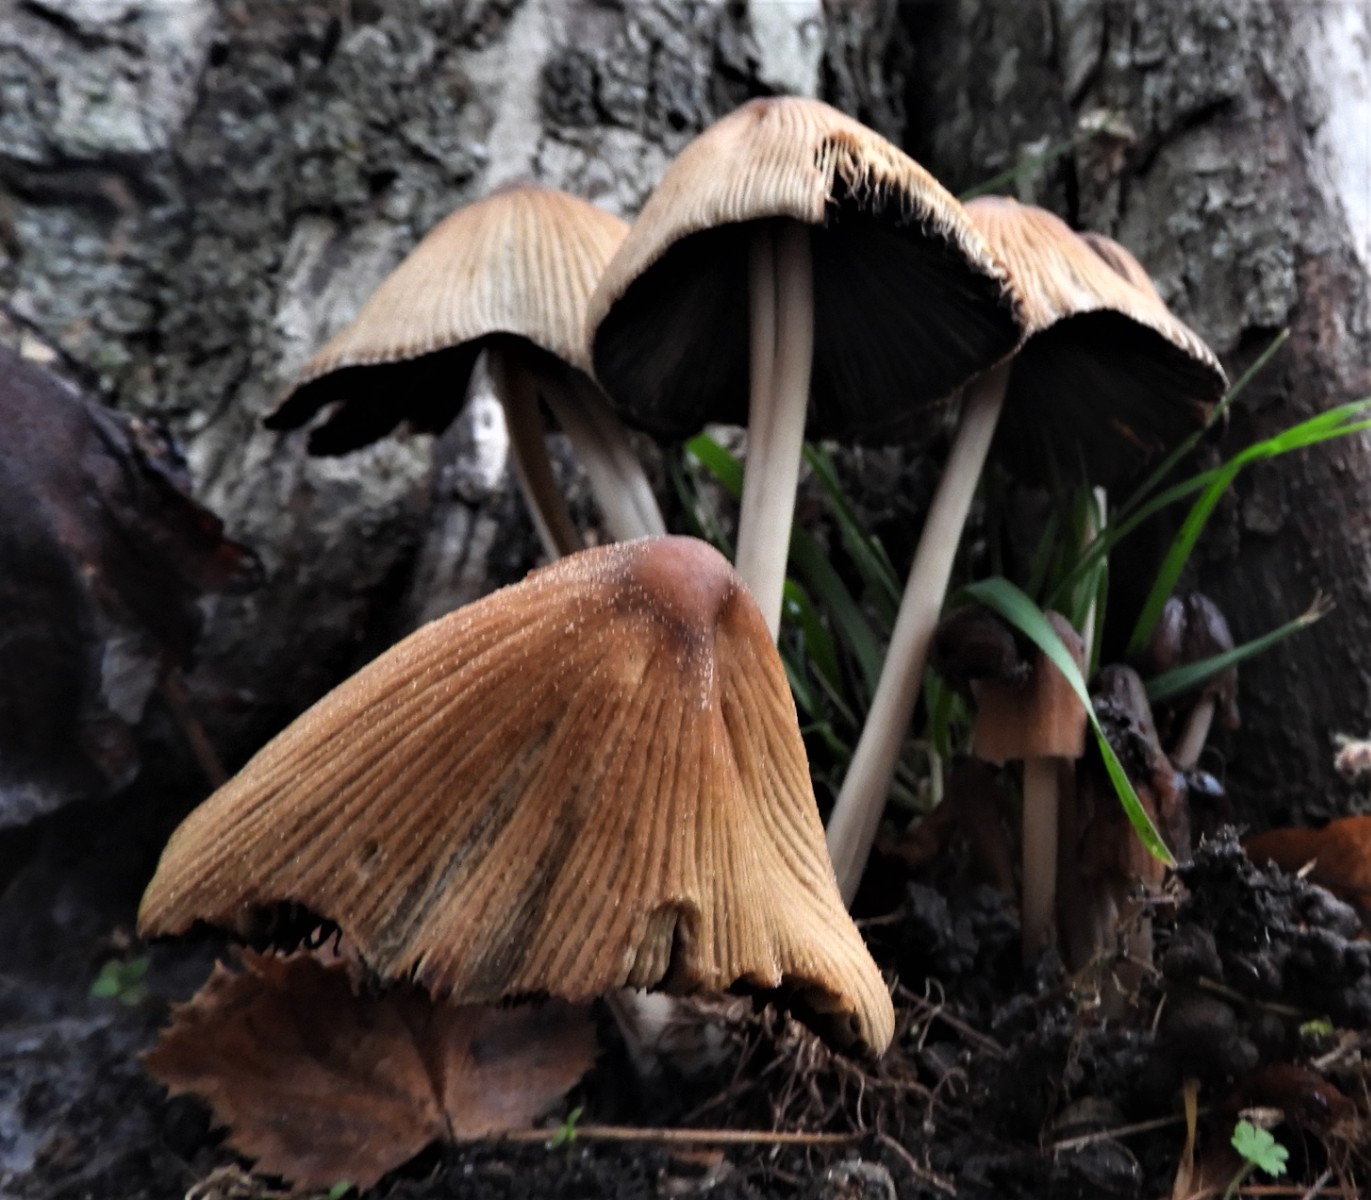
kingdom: Fungi
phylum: Basidiomycota
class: Agaricomycetes
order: Agaricales
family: Psathyrellaceae
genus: Coprinellus
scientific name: Coprinellus micaceus
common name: glimmer-blækhat
